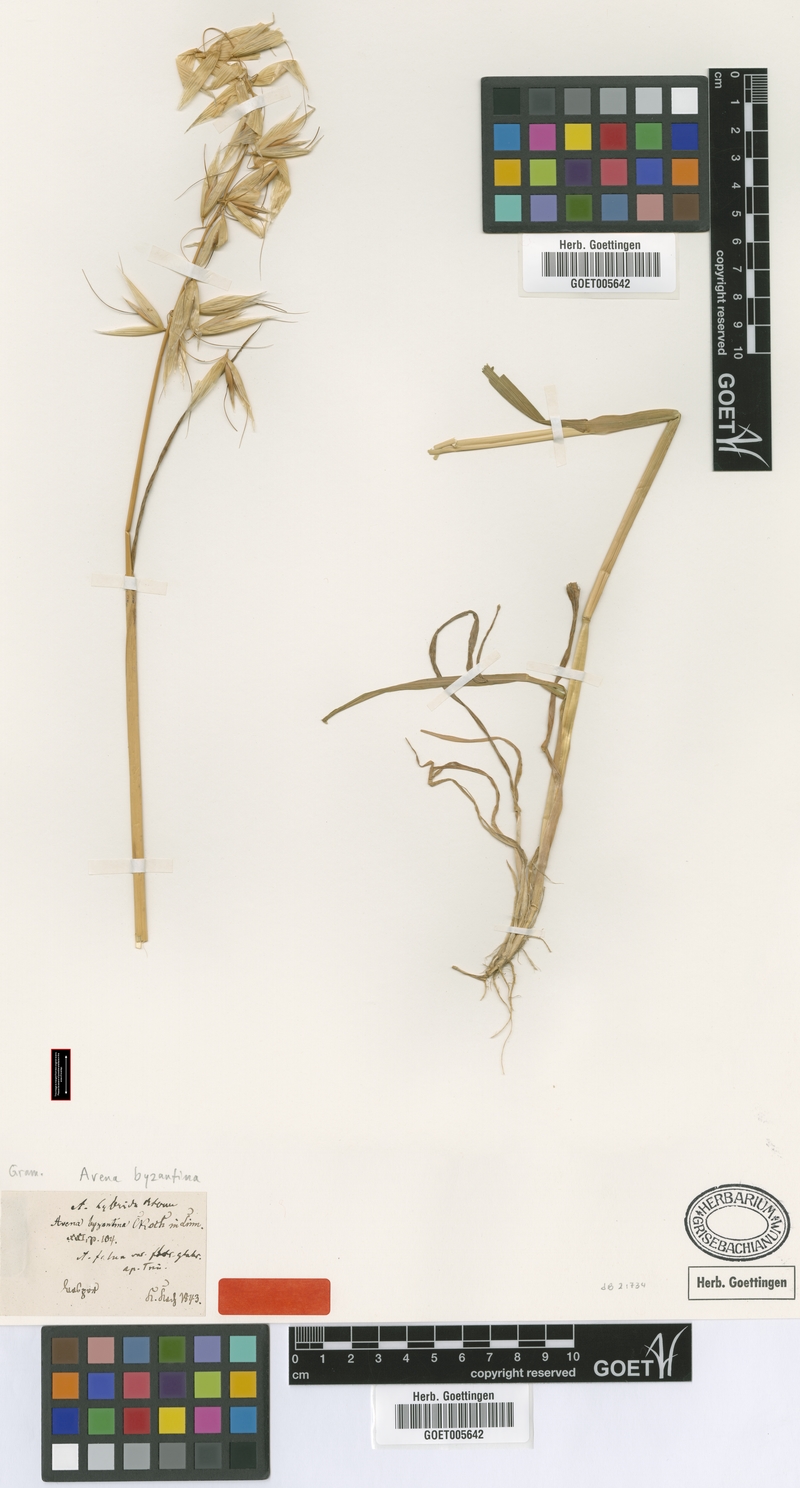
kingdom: Plantae
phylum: Tracheophyta
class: Liliopsida
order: Poales
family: Poaceae
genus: Avena
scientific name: Avena byzantina
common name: Algerian oat
